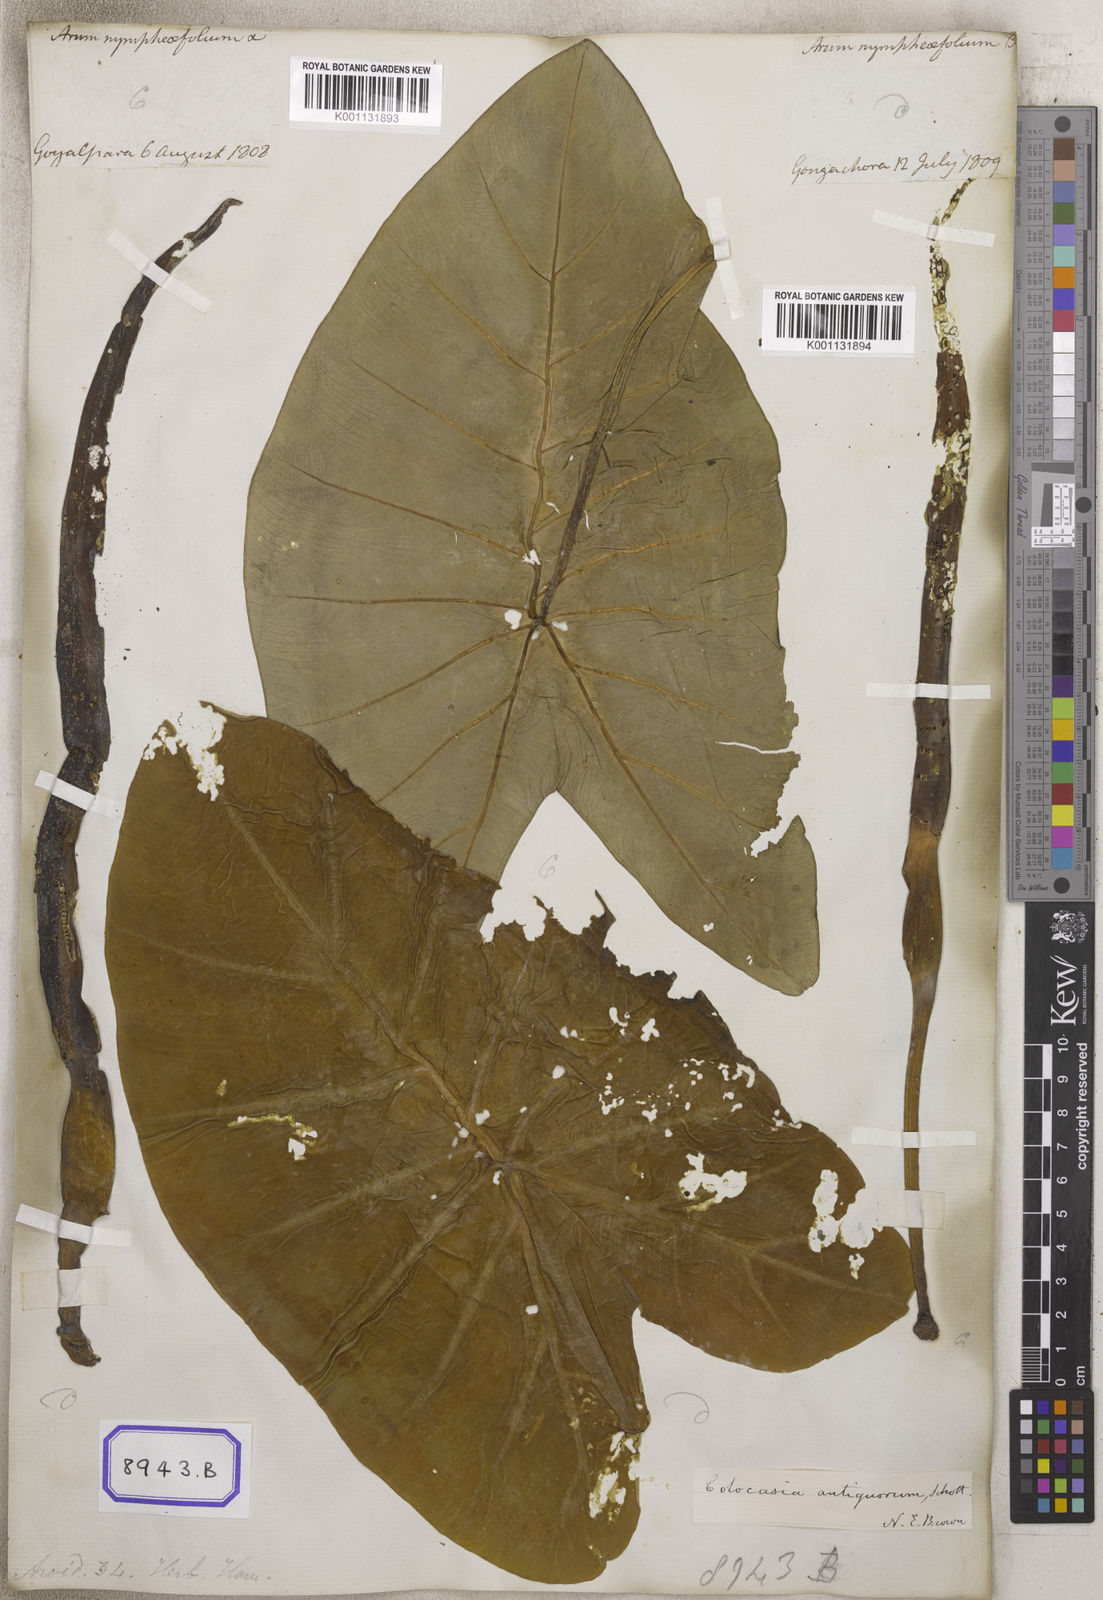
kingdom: Plantae
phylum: Tracheophyta
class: Liliopsida
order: Alismatales
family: Araceae
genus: Colocasia
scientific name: Colocasia spec
